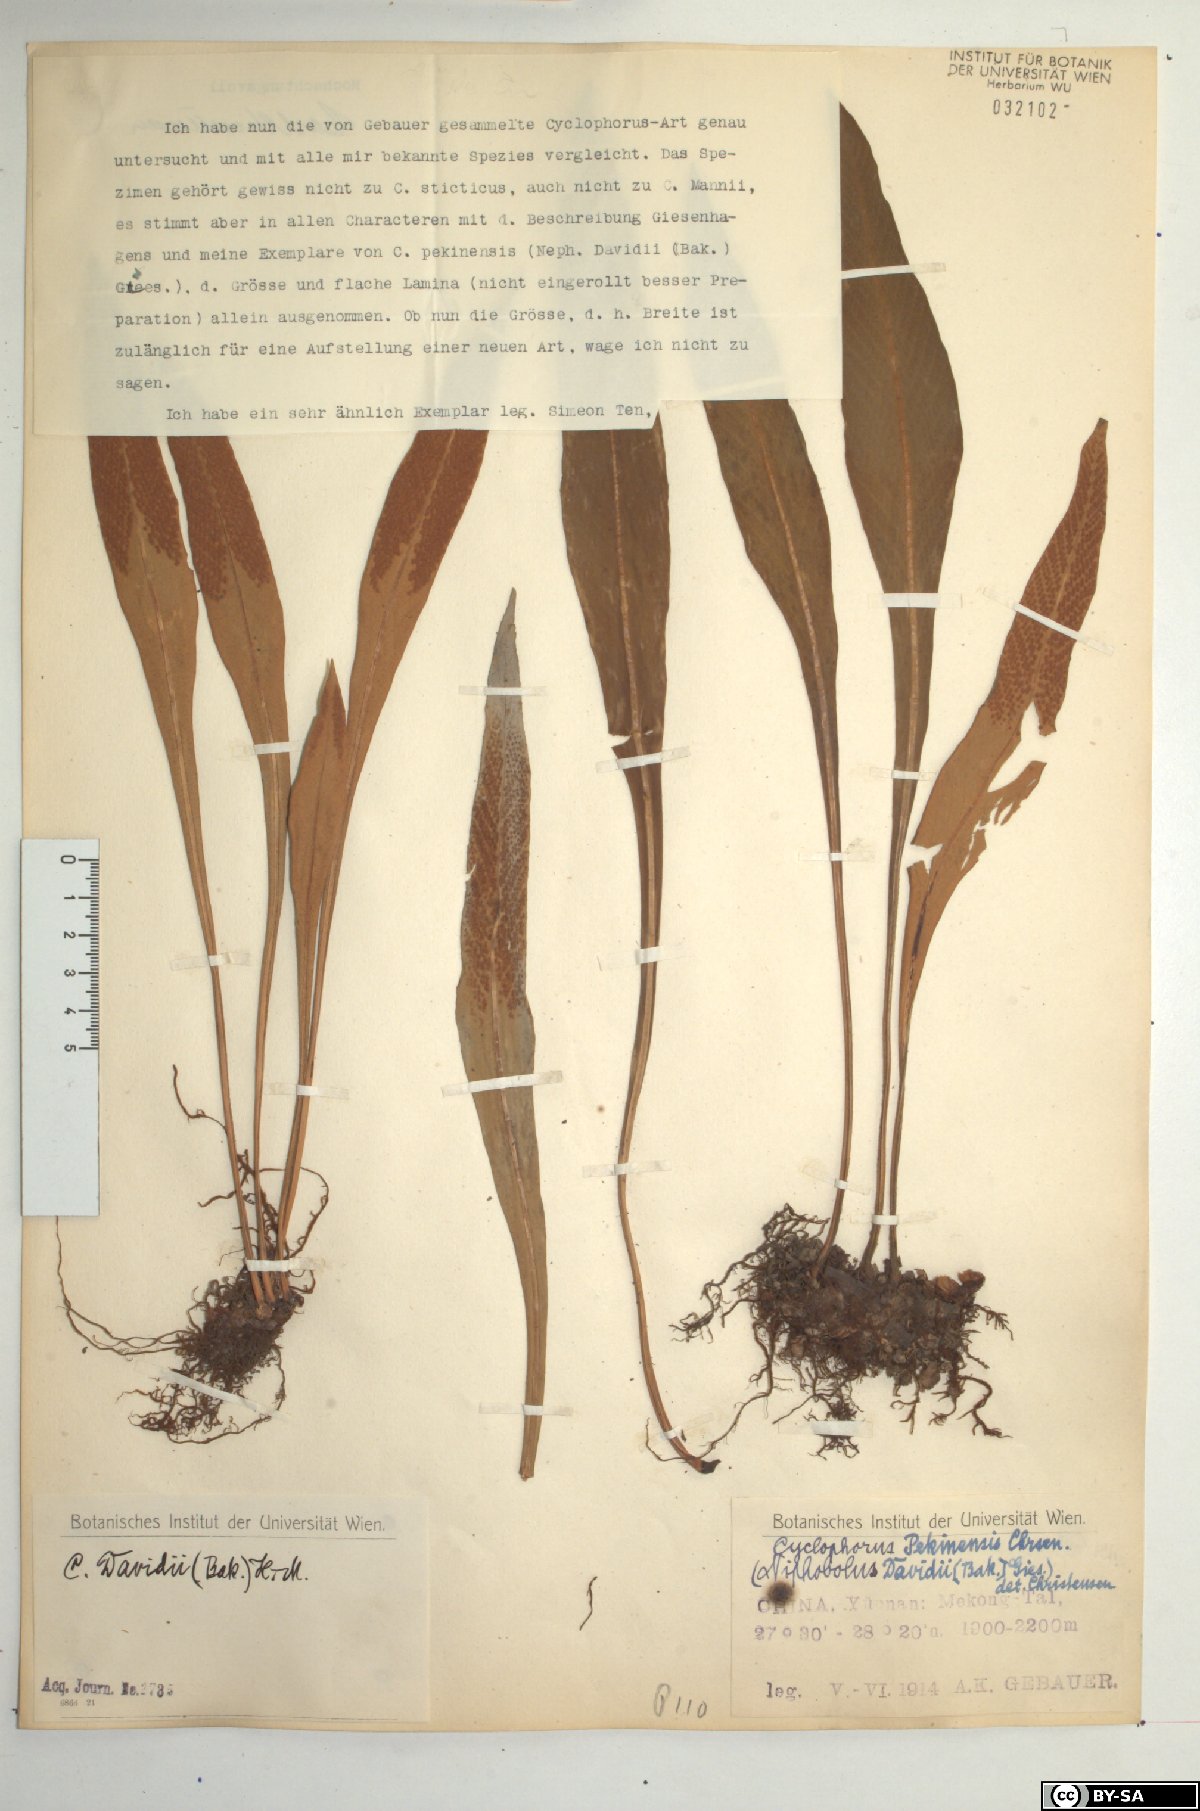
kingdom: Plantae
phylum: Tracheophyta
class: Polypodiopsida
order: Polypodiales
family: Polypodiaceae
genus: Pyrrosia
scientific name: Pyrrosia porosa
